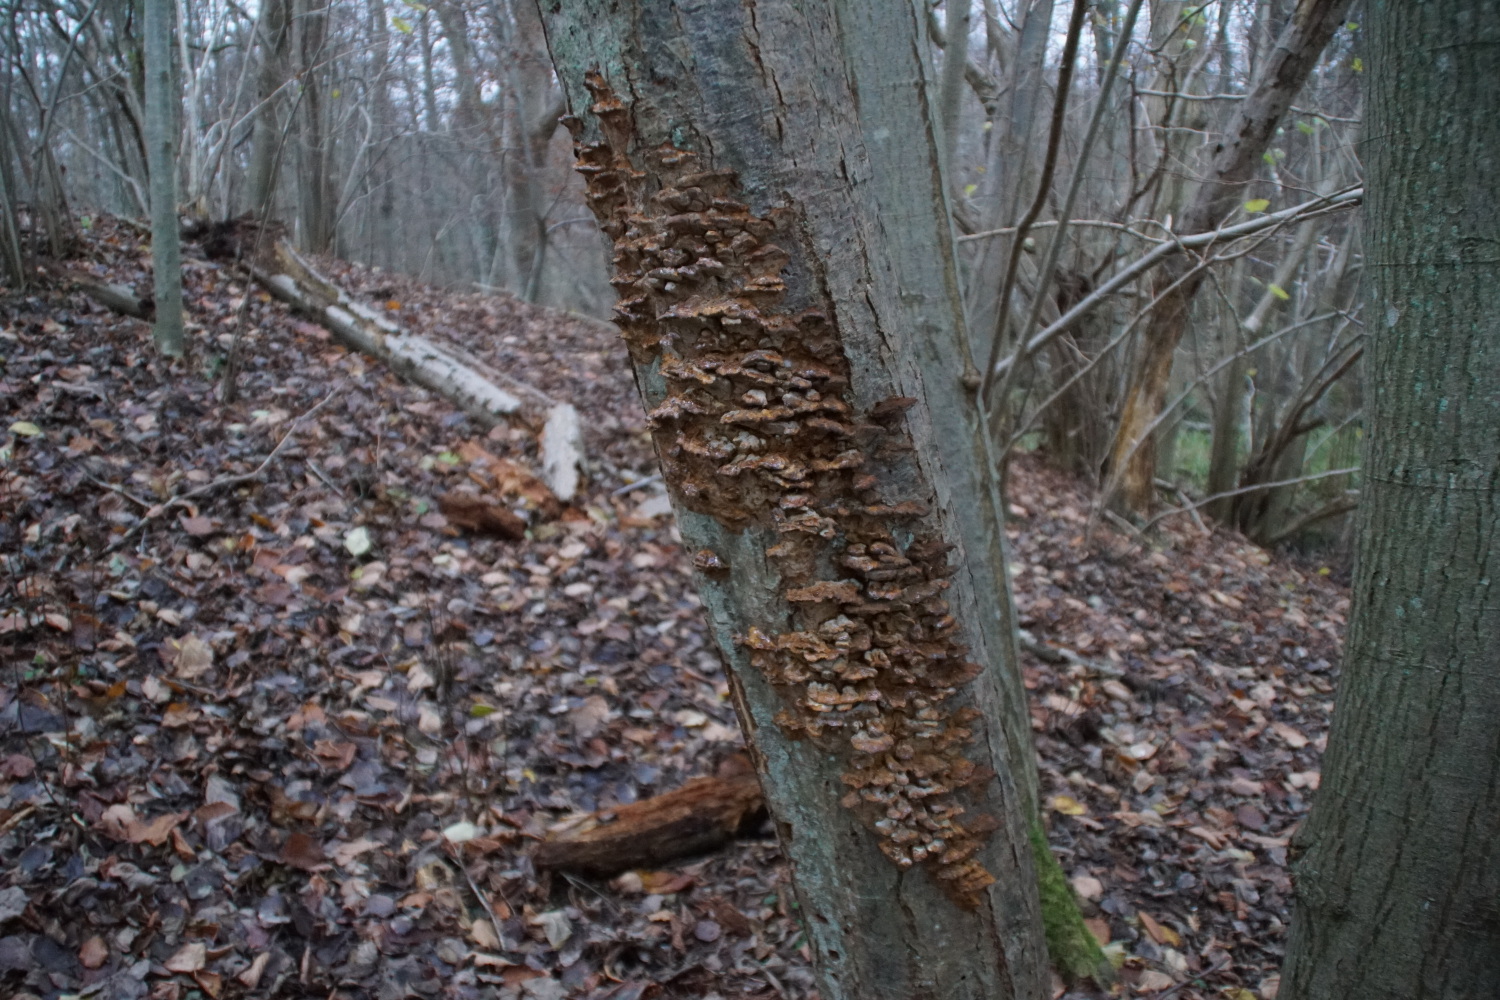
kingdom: Fungi
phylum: Basidiomycota
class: Agaricomycetes
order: Hymenochaetales
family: Hymenochaetaceae
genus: Xanthoporia
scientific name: Xanthoporia radiata
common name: elle-spejlporesvamp
